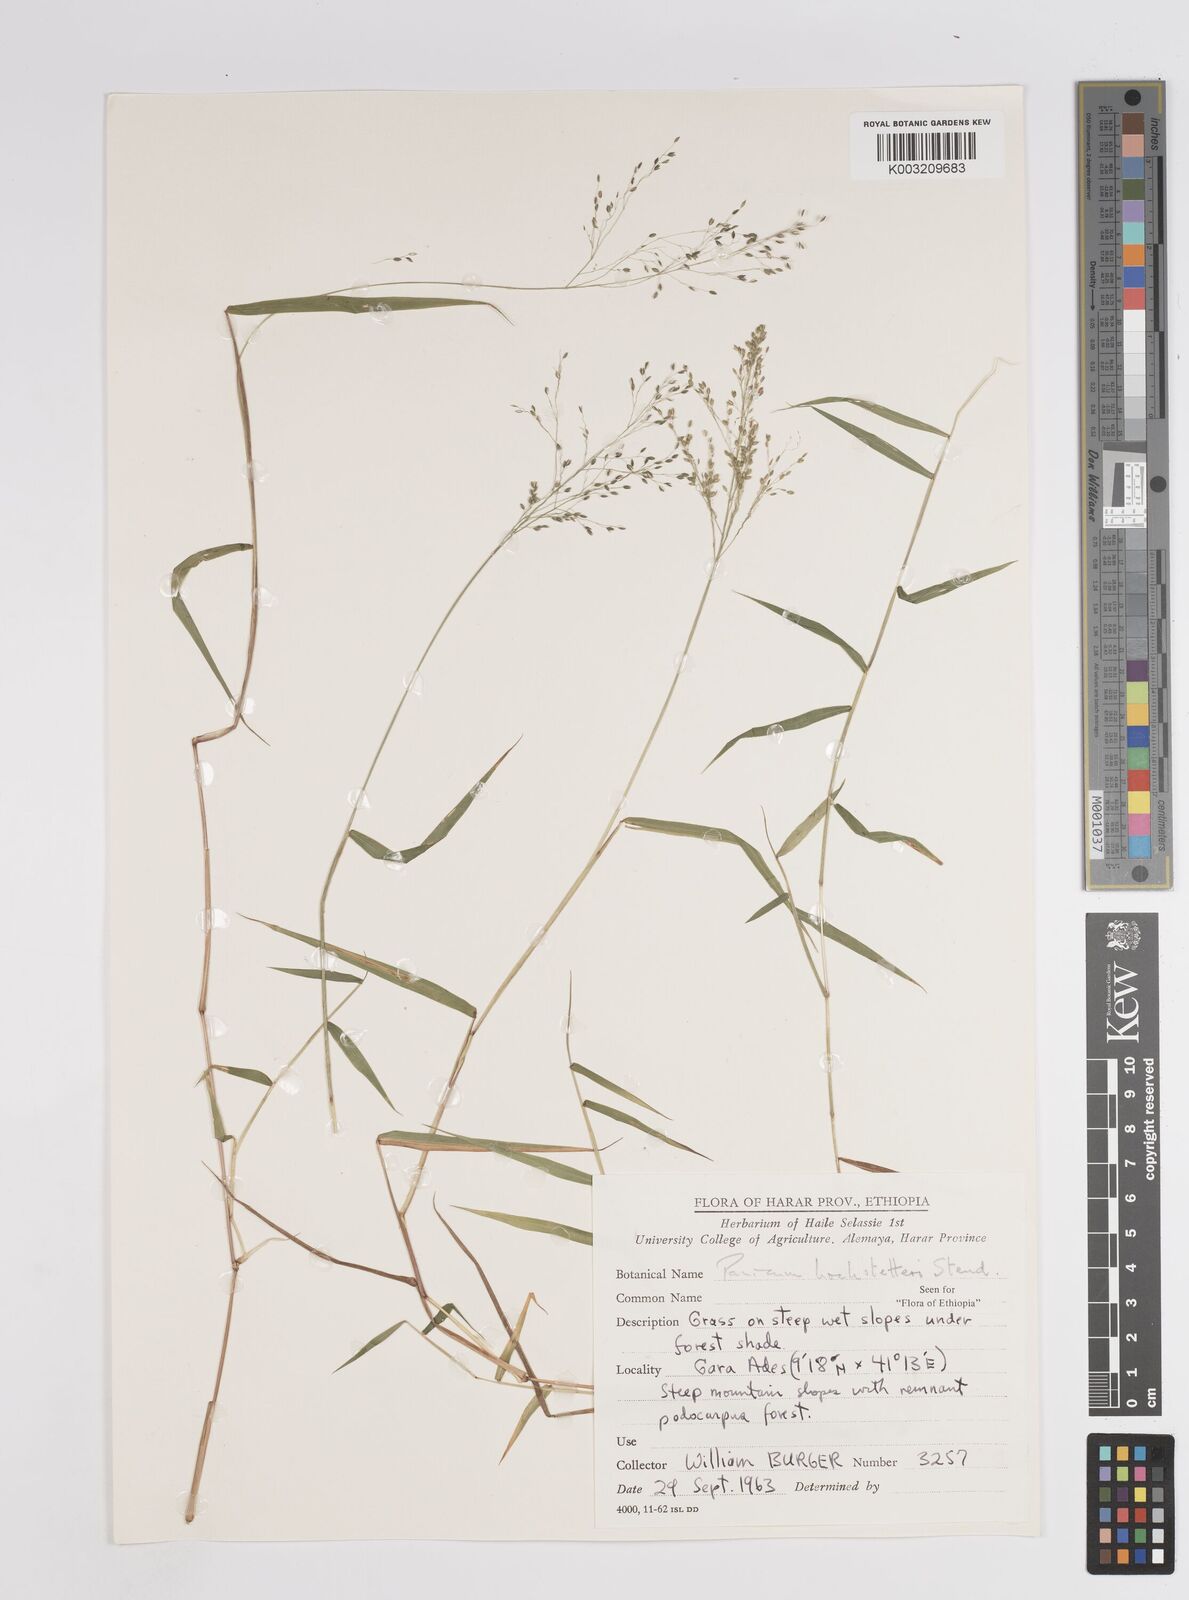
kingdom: Plantae
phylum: Tracheophyta
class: Liliopsida
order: Poales
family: Poaceae
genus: Panicum
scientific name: Panicum hochstetteri
